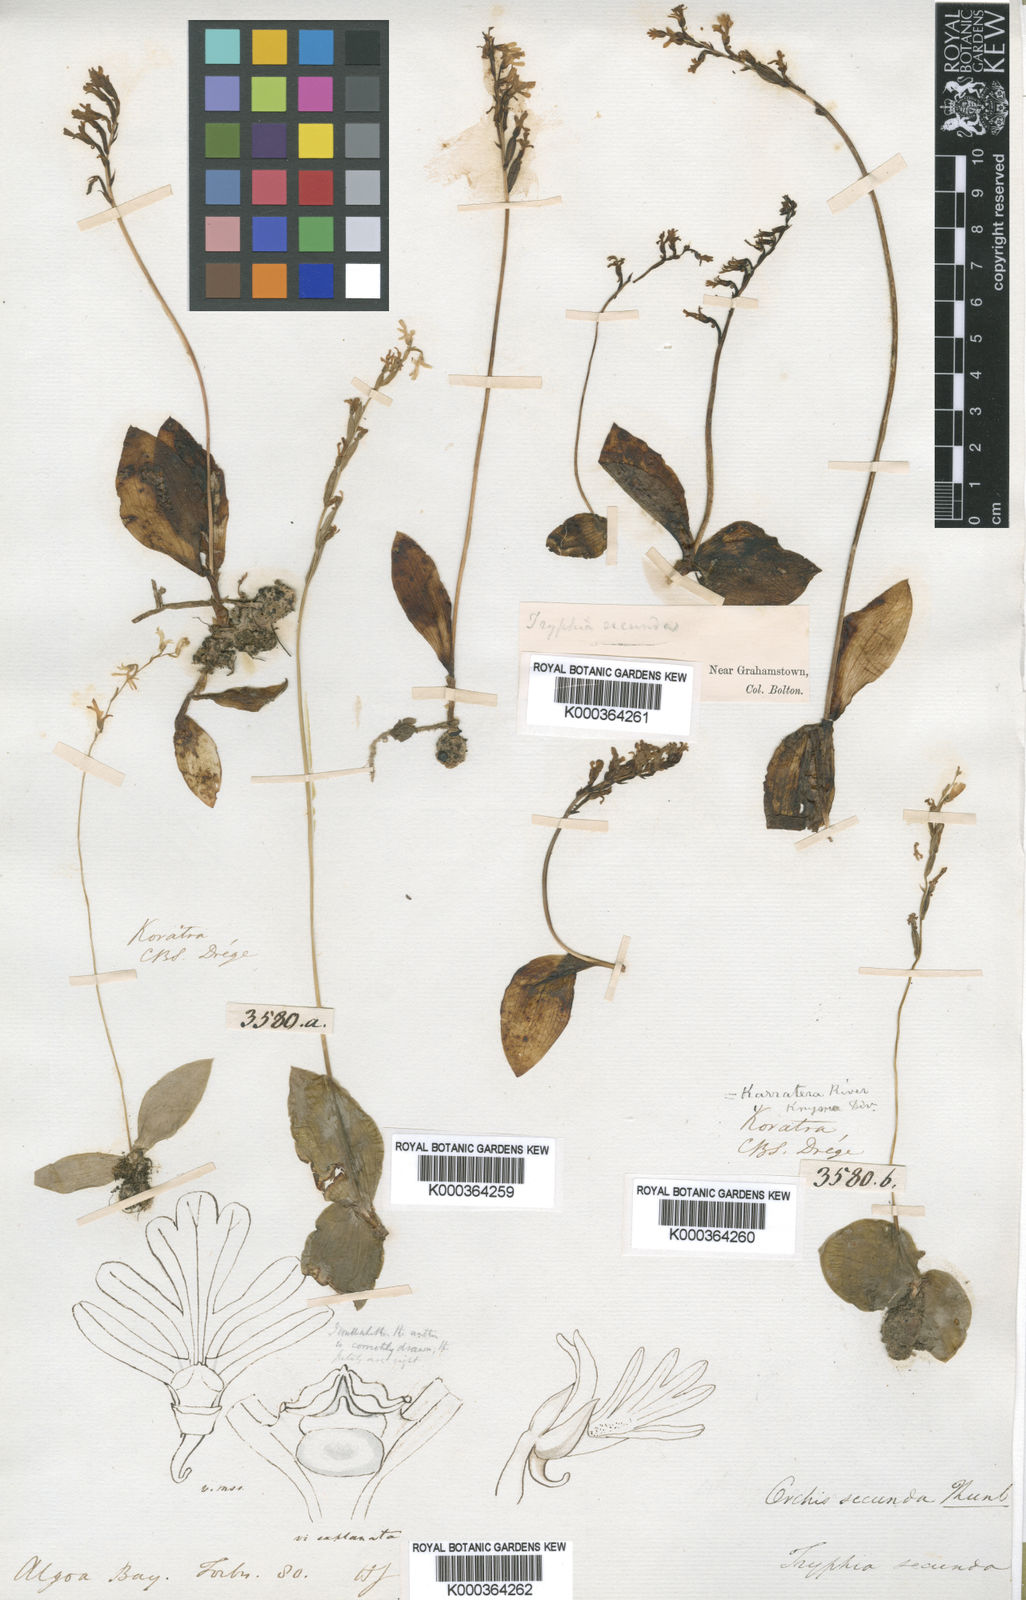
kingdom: Plantae
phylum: Tracheophyta
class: Liliopsida
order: Asparagales
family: Orchidaceae
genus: Holothrix
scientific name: Holothrix secunda
